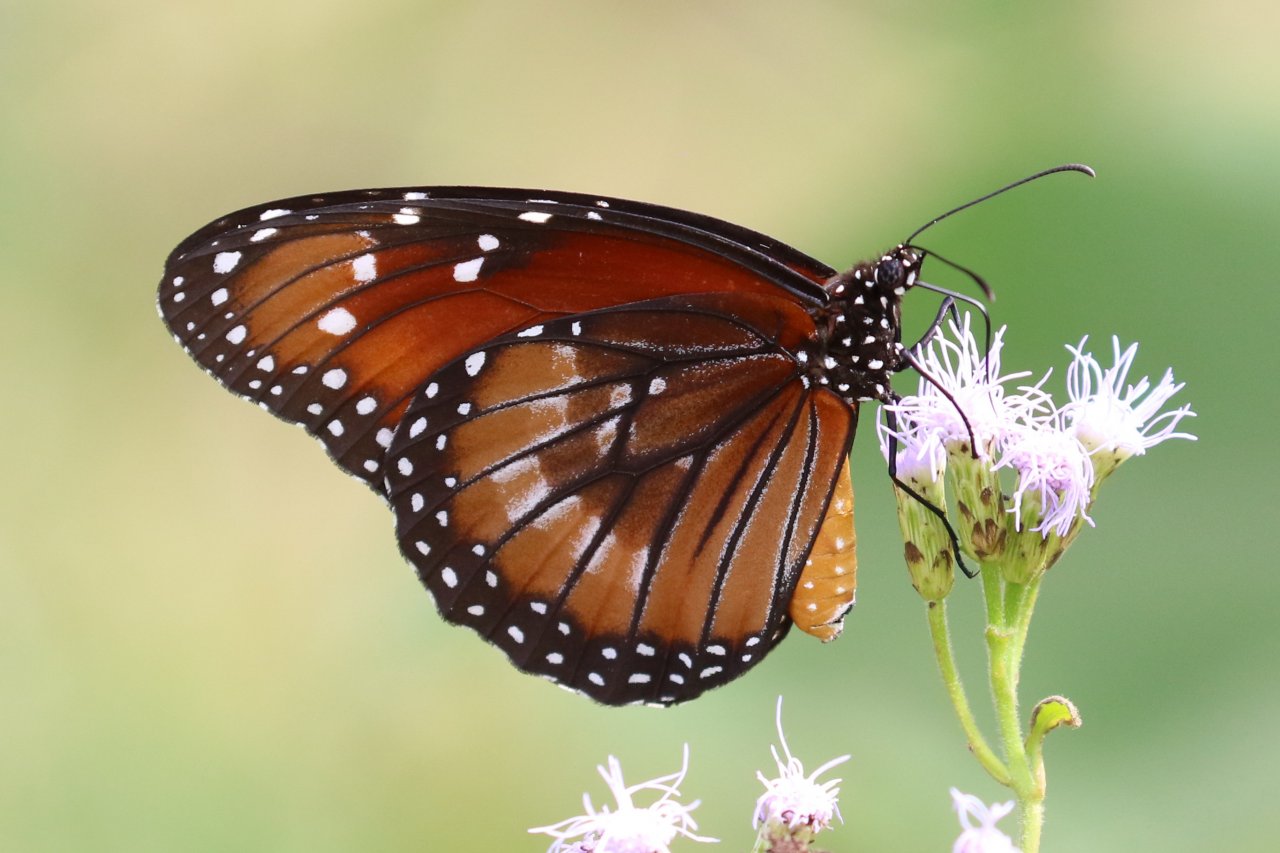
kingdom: Animalia
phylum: Arthropoda
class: Insecta
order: Lepidoptera
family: Nymphalidae
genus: Danaus
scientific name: Danaus eresimus
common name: Soldier
